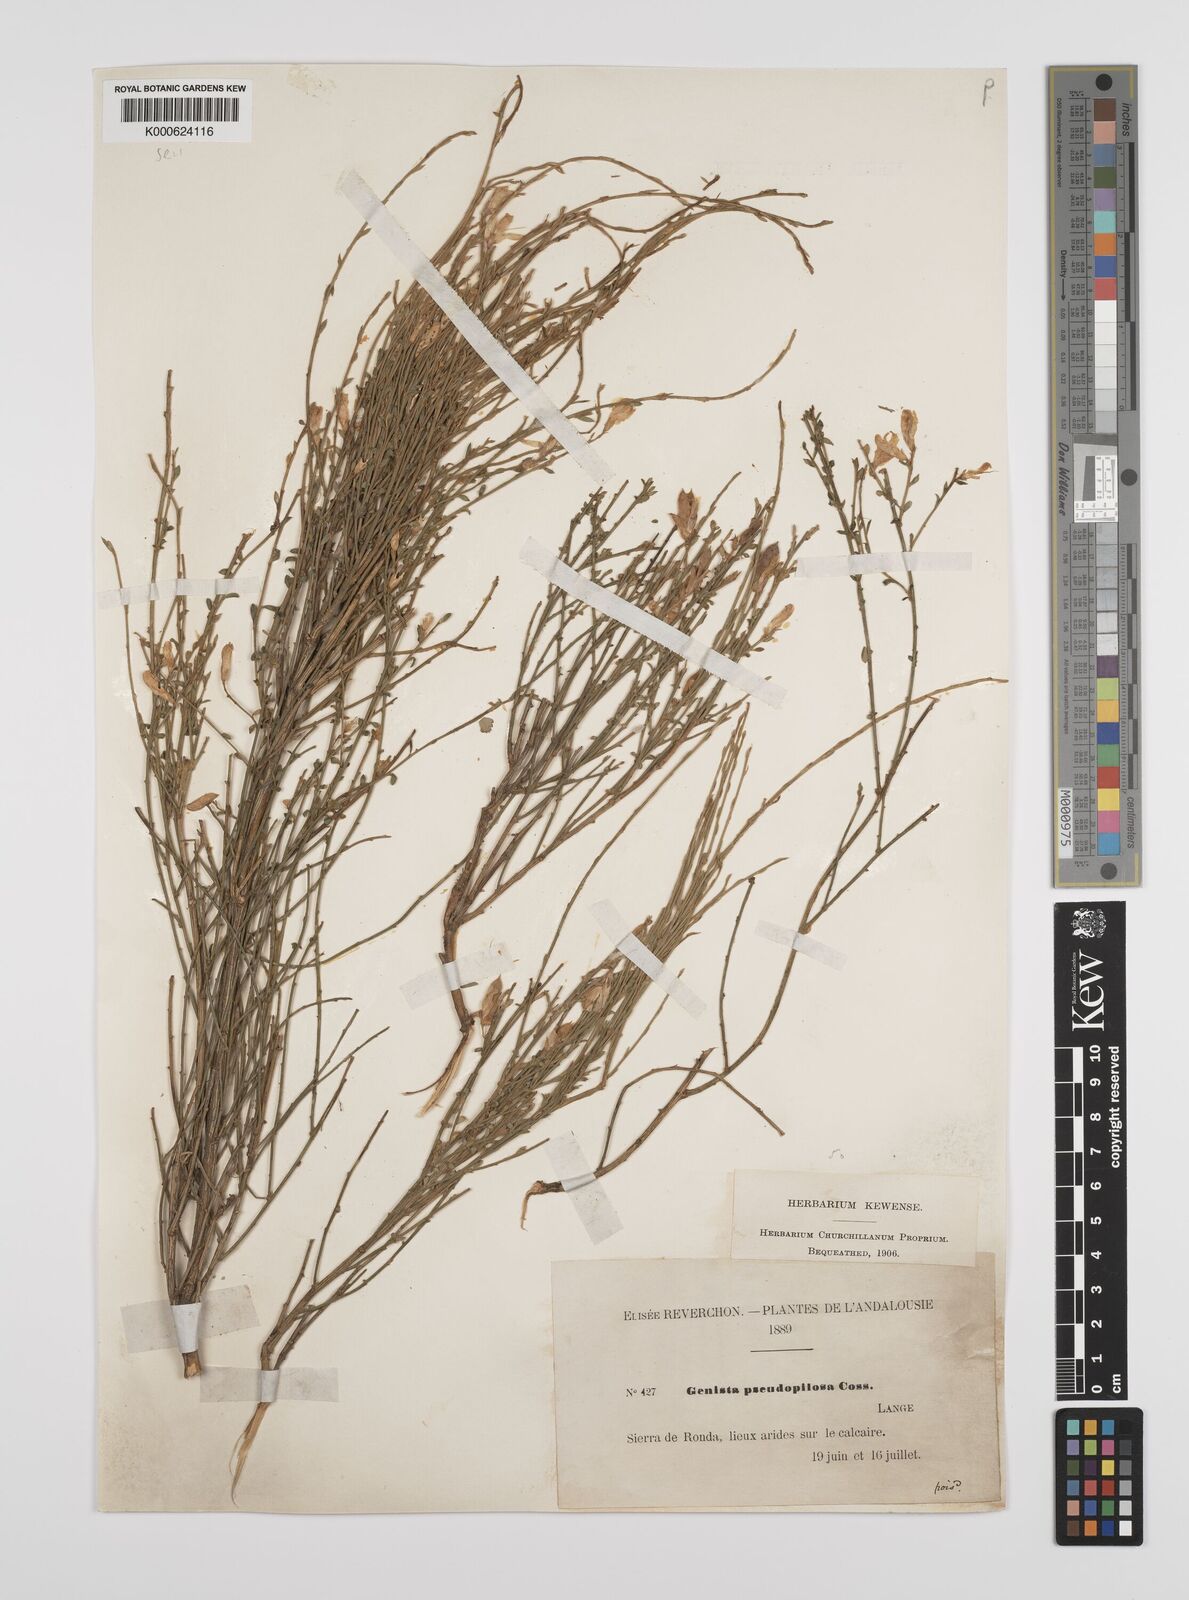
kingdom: Plantae
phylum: Tracheophyta
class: Magnoliopsida
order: Fabales
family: Fabaceae
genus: Genista
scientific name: Genista pseudopilosa
